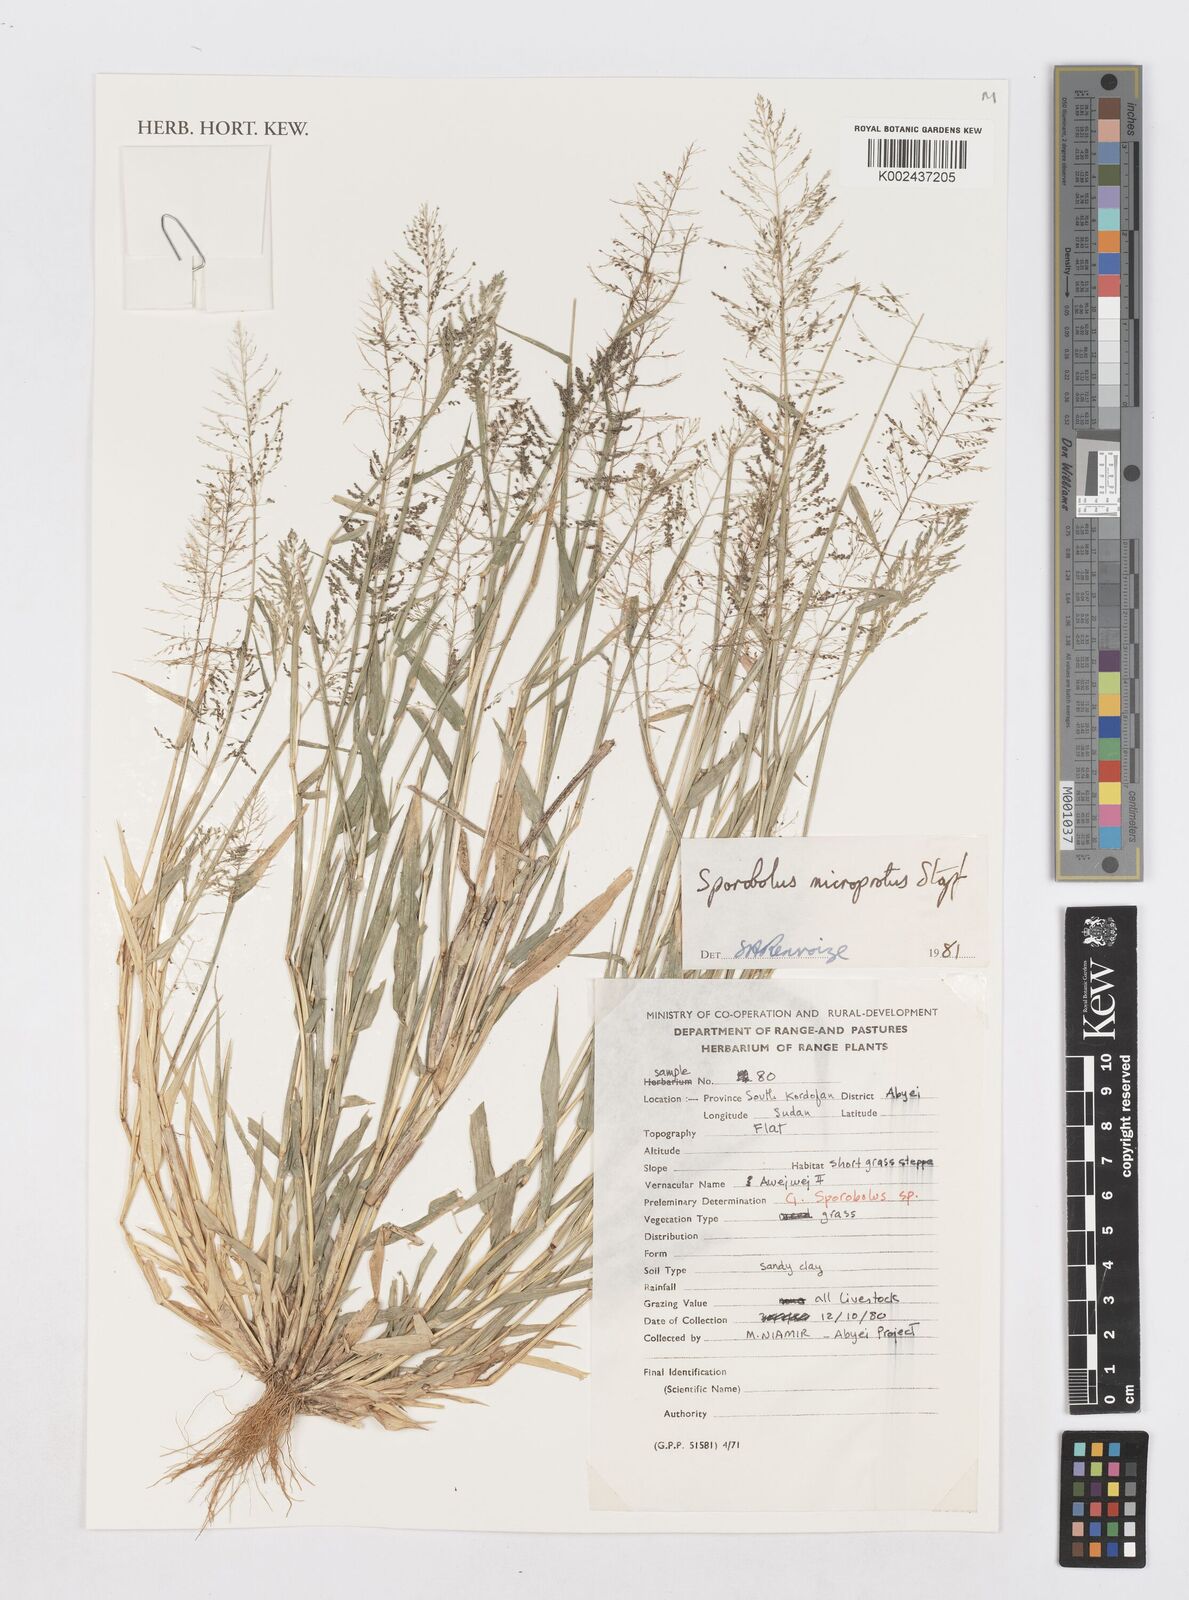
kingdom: Plantae
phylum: Tracheophyta
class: Liliopsida
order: Poales
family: Poaceae
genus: Sporobolus
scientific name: Sporobolus microprotus
